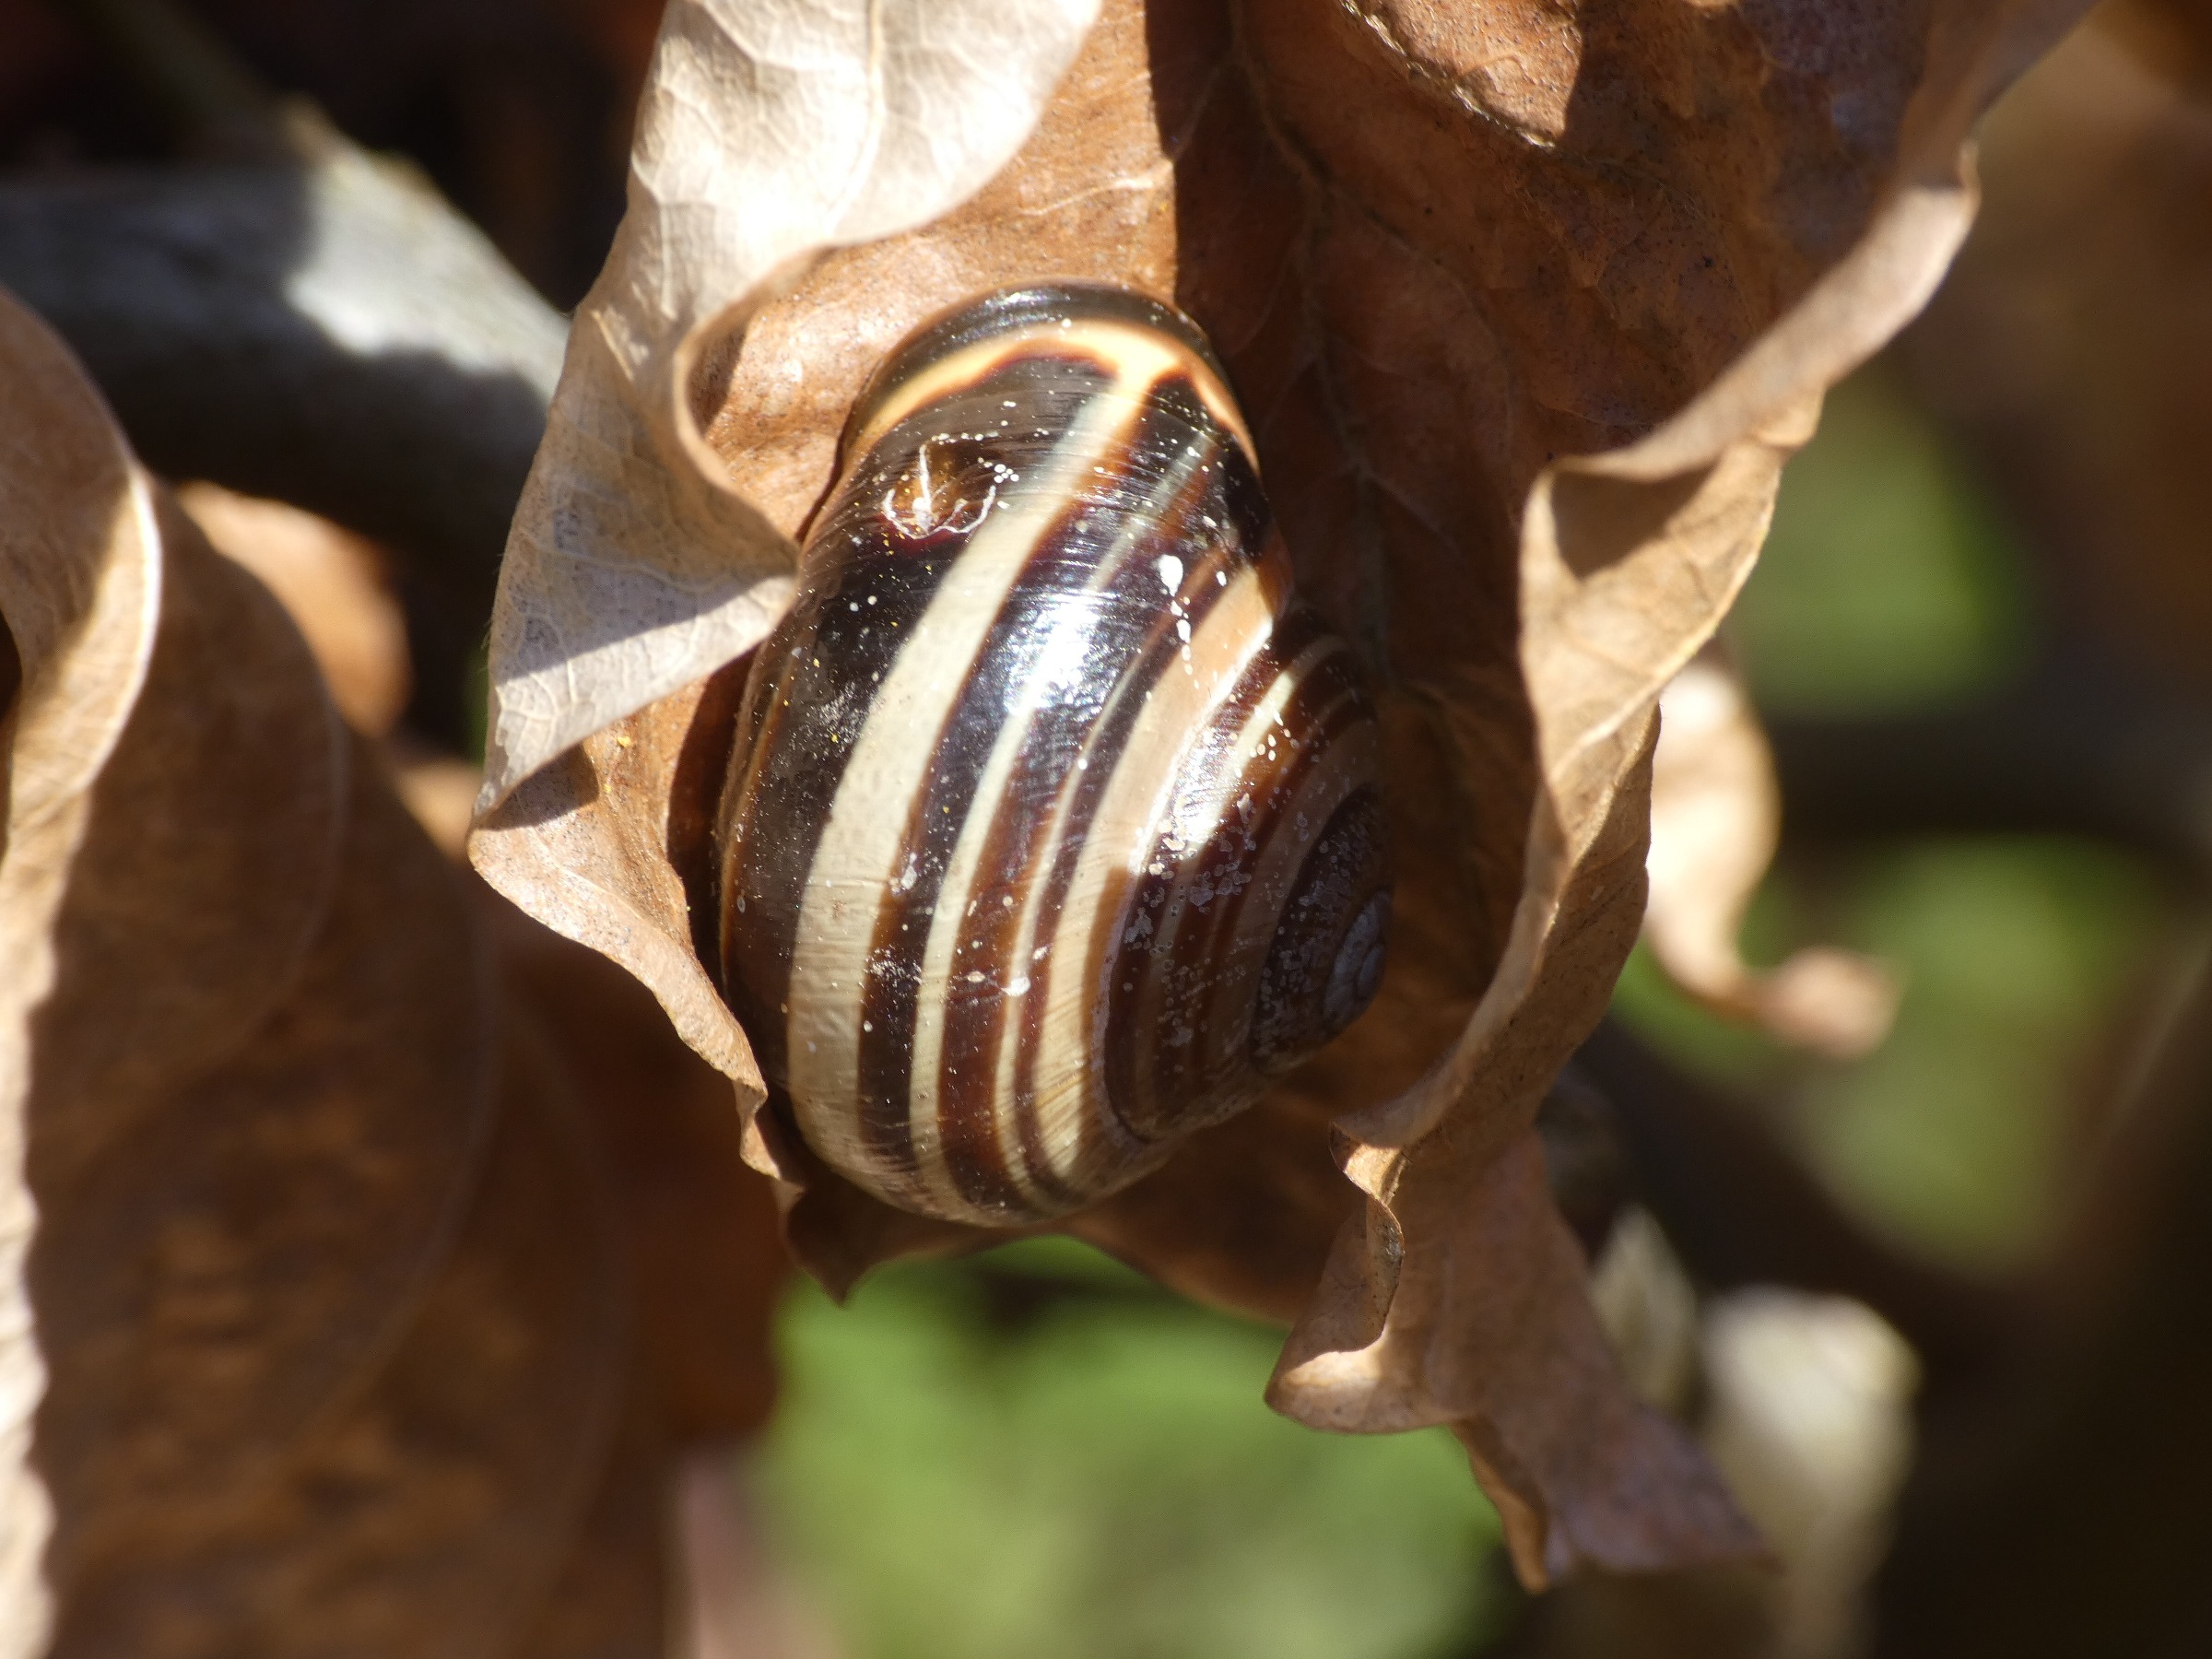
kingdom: Animalia
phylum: Mollusca
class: Gastropoda
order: Stylommatophora
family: Helicidae
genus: Cepaea
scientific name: Cepaea nemoralis
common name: Lundsnegl
